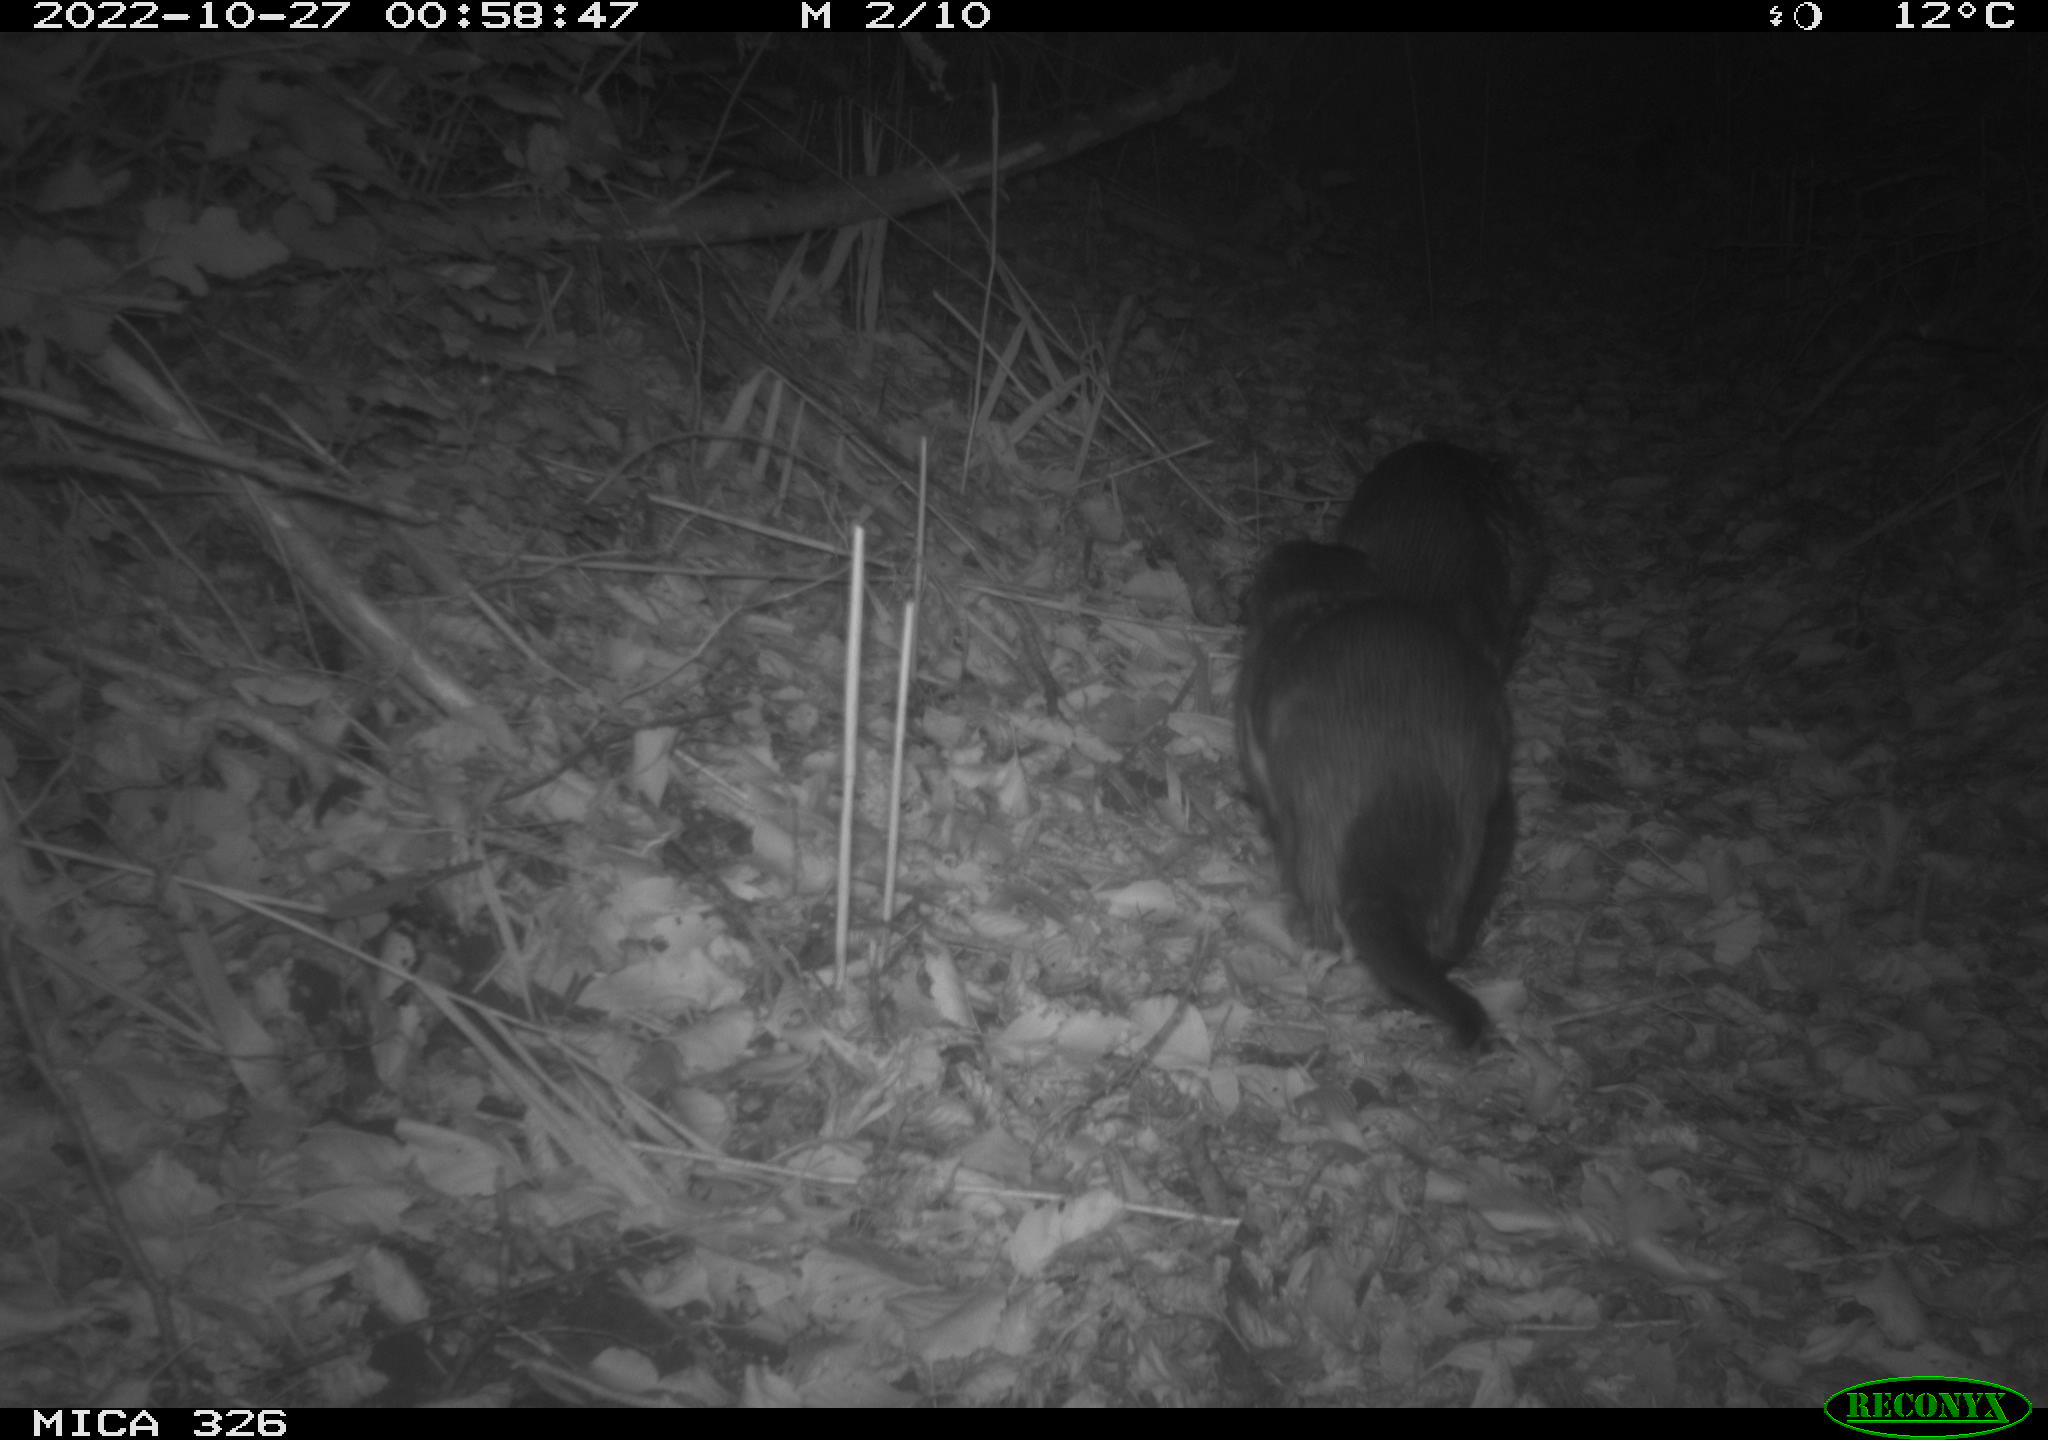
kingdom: Animalia
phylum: Chordata
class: Mammalia
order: Carnivora
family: Mustelidae
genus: Lutra
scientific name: Lutra lutra
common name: European otter
